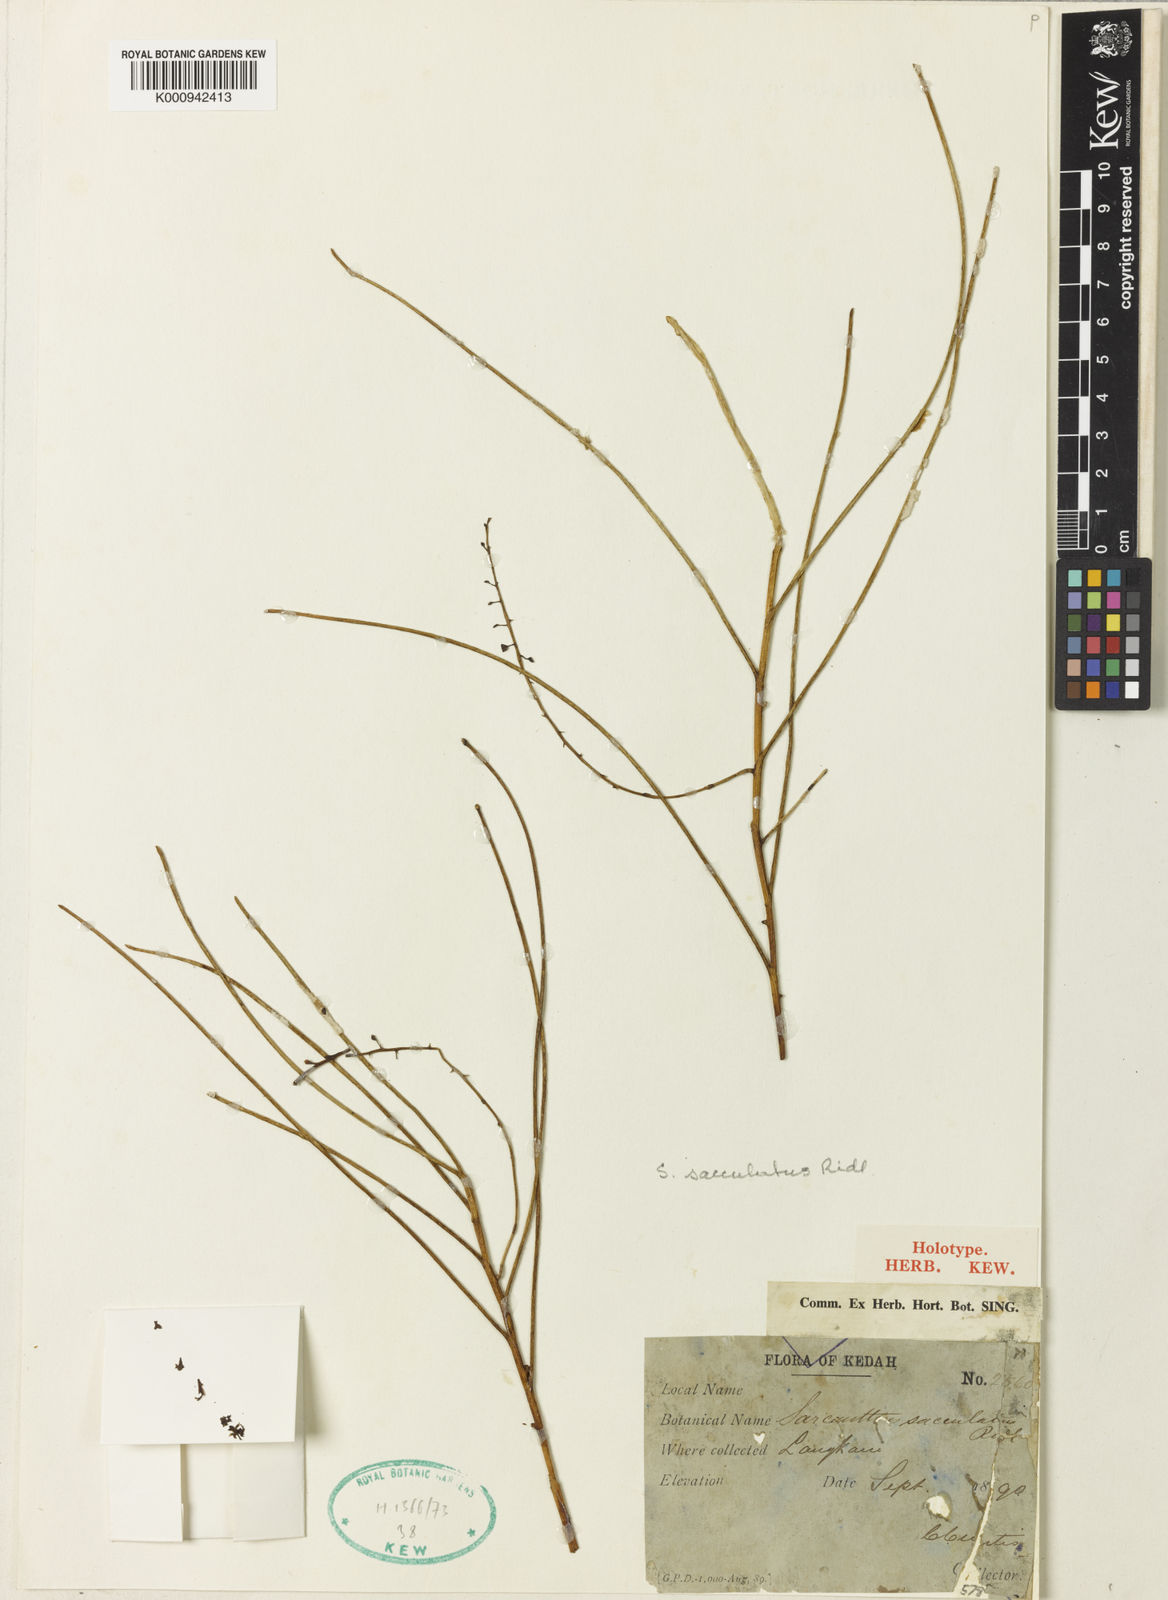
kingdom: Plantae
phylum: Tracheophyta
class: Liliopsida
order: Asparagales
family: Orchidaceae
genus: Cleisostoma
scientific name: Cleisostoma williamsonii
